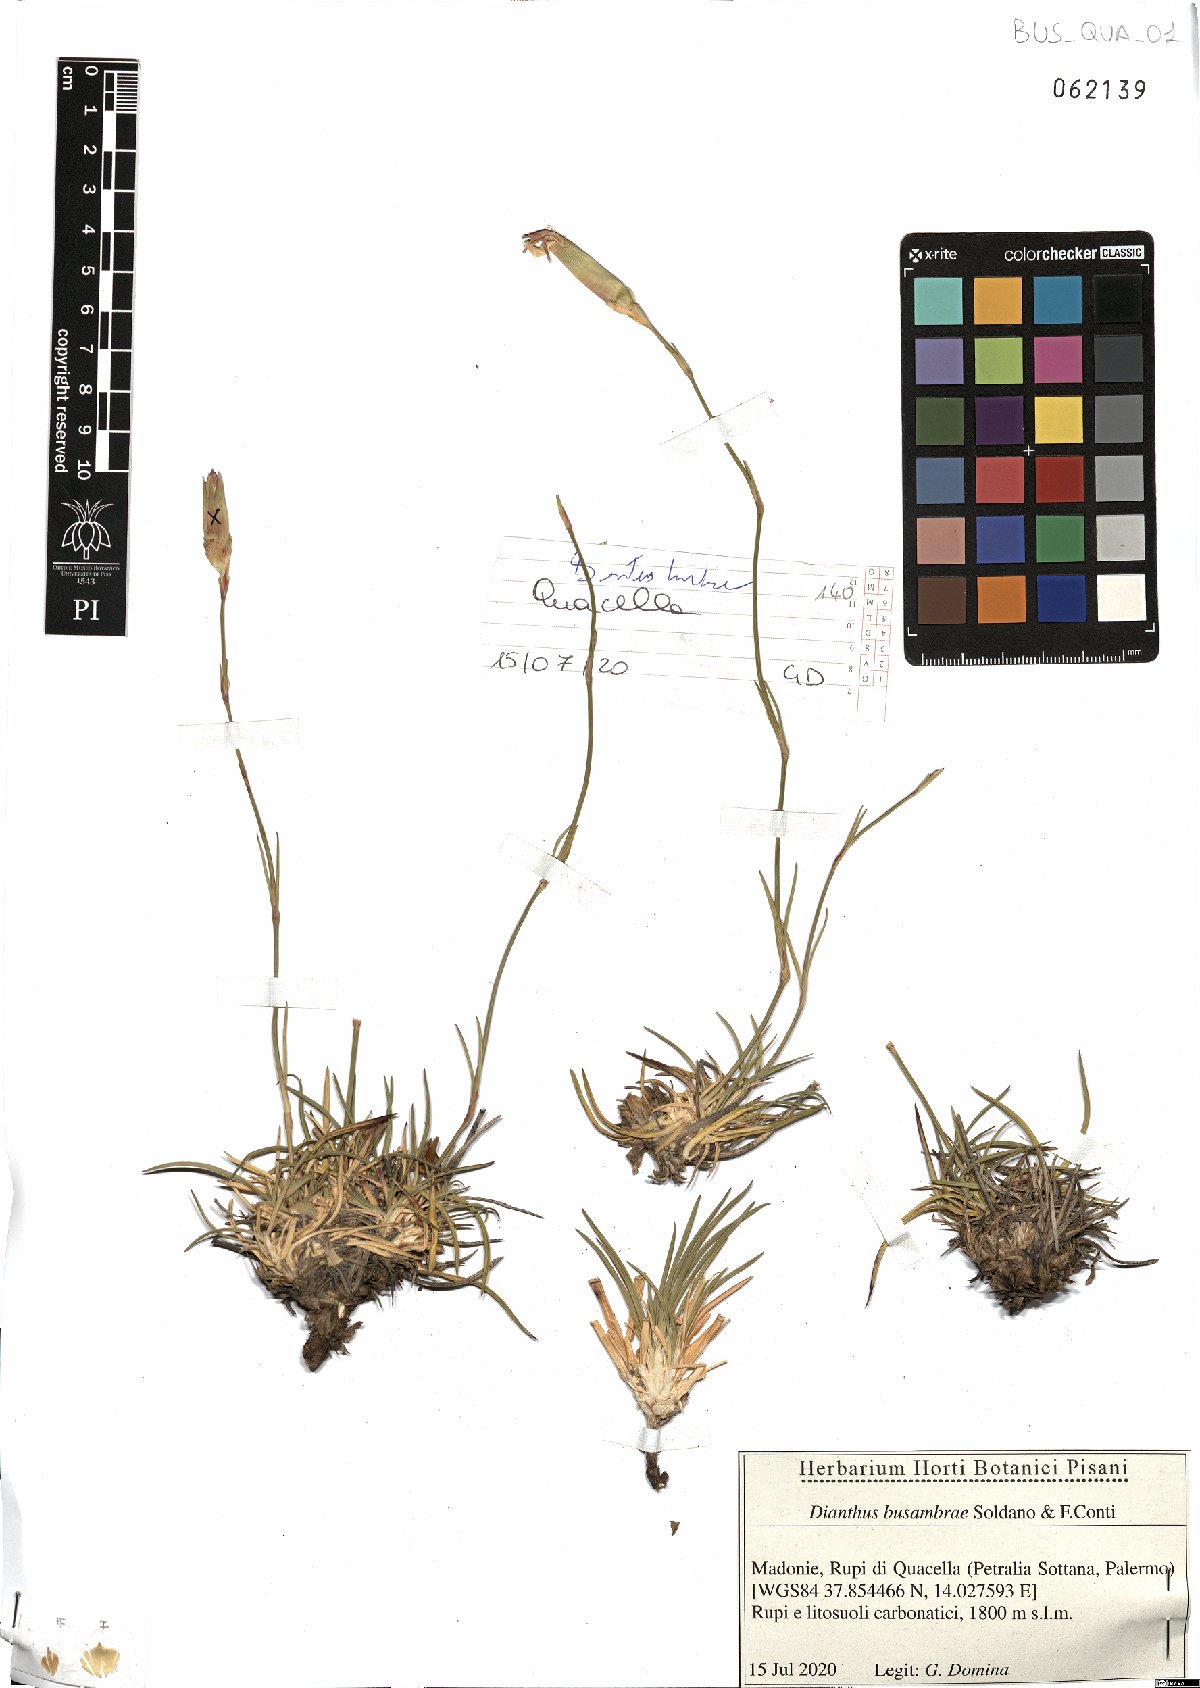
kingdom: Plantae
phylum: Tracheophyta
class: Magnoliopsida
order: Caryophyllales
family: Caryophyllaceae
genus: Dianthus
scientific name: Dianthus busambrae
